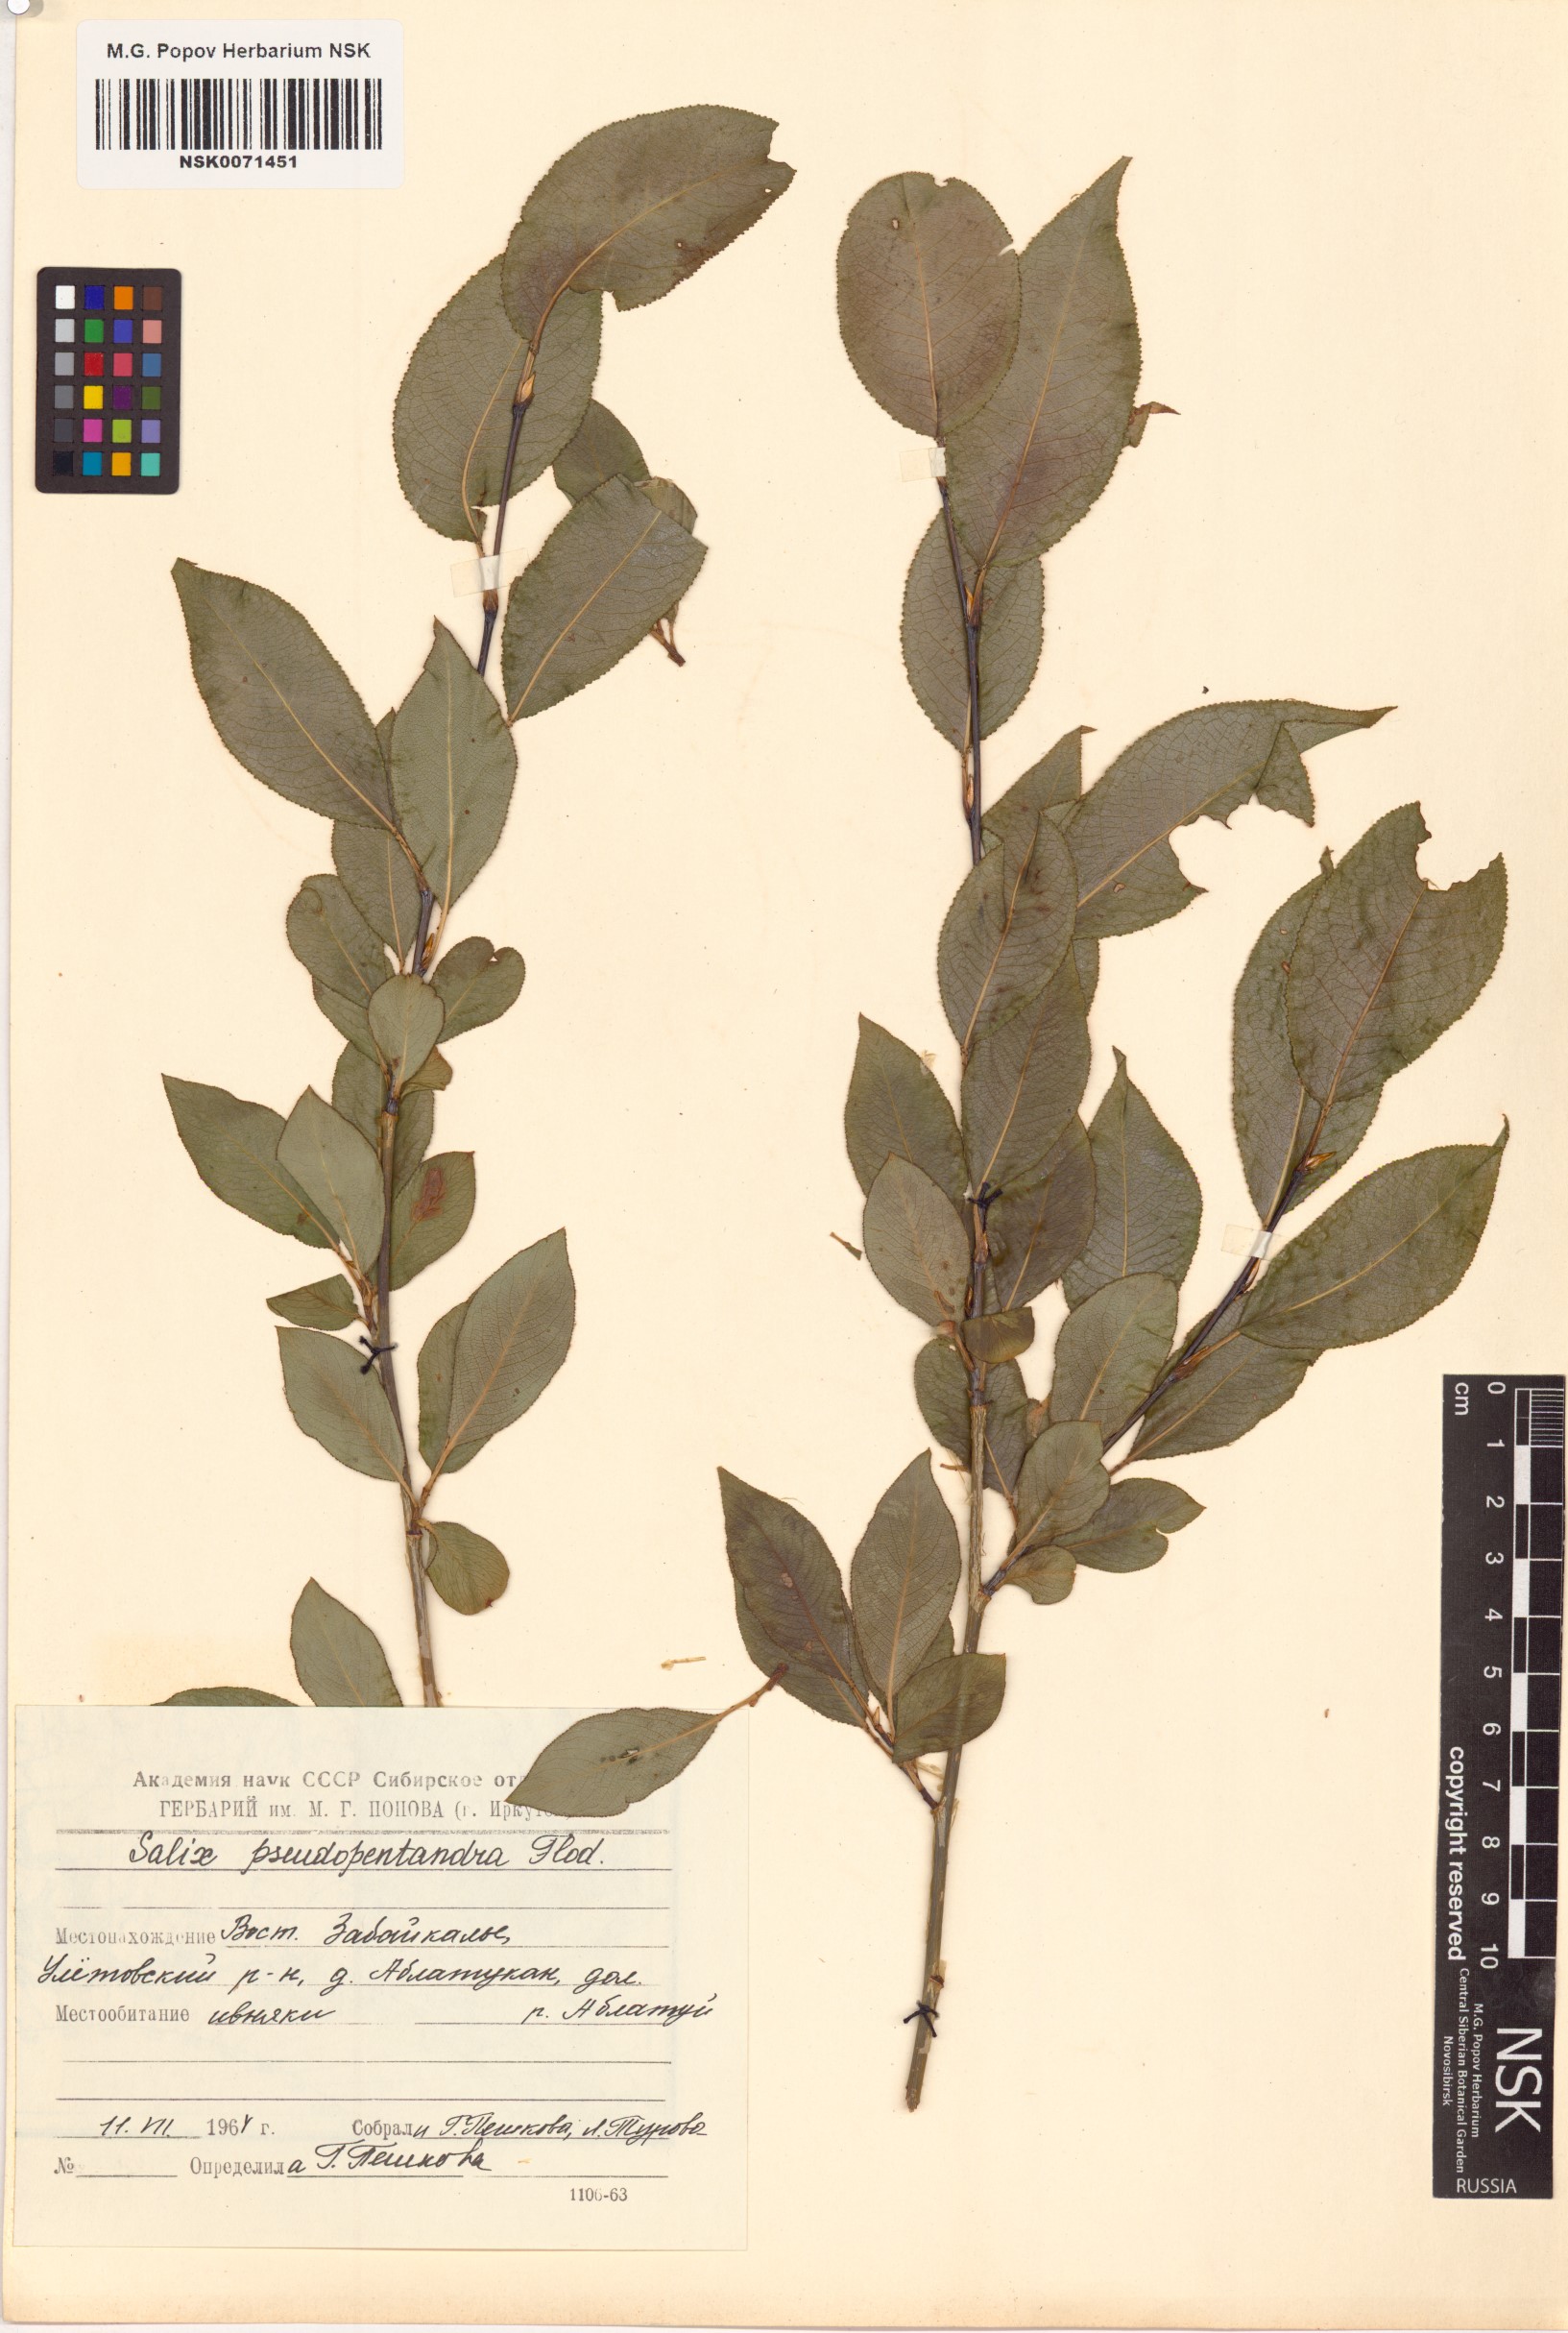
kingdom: Plantae
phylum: Tracheophyta
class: Magnoliopsida
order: Malpighiales
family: Salicaceae
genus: Salix
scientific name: Salix pseudopentandra
